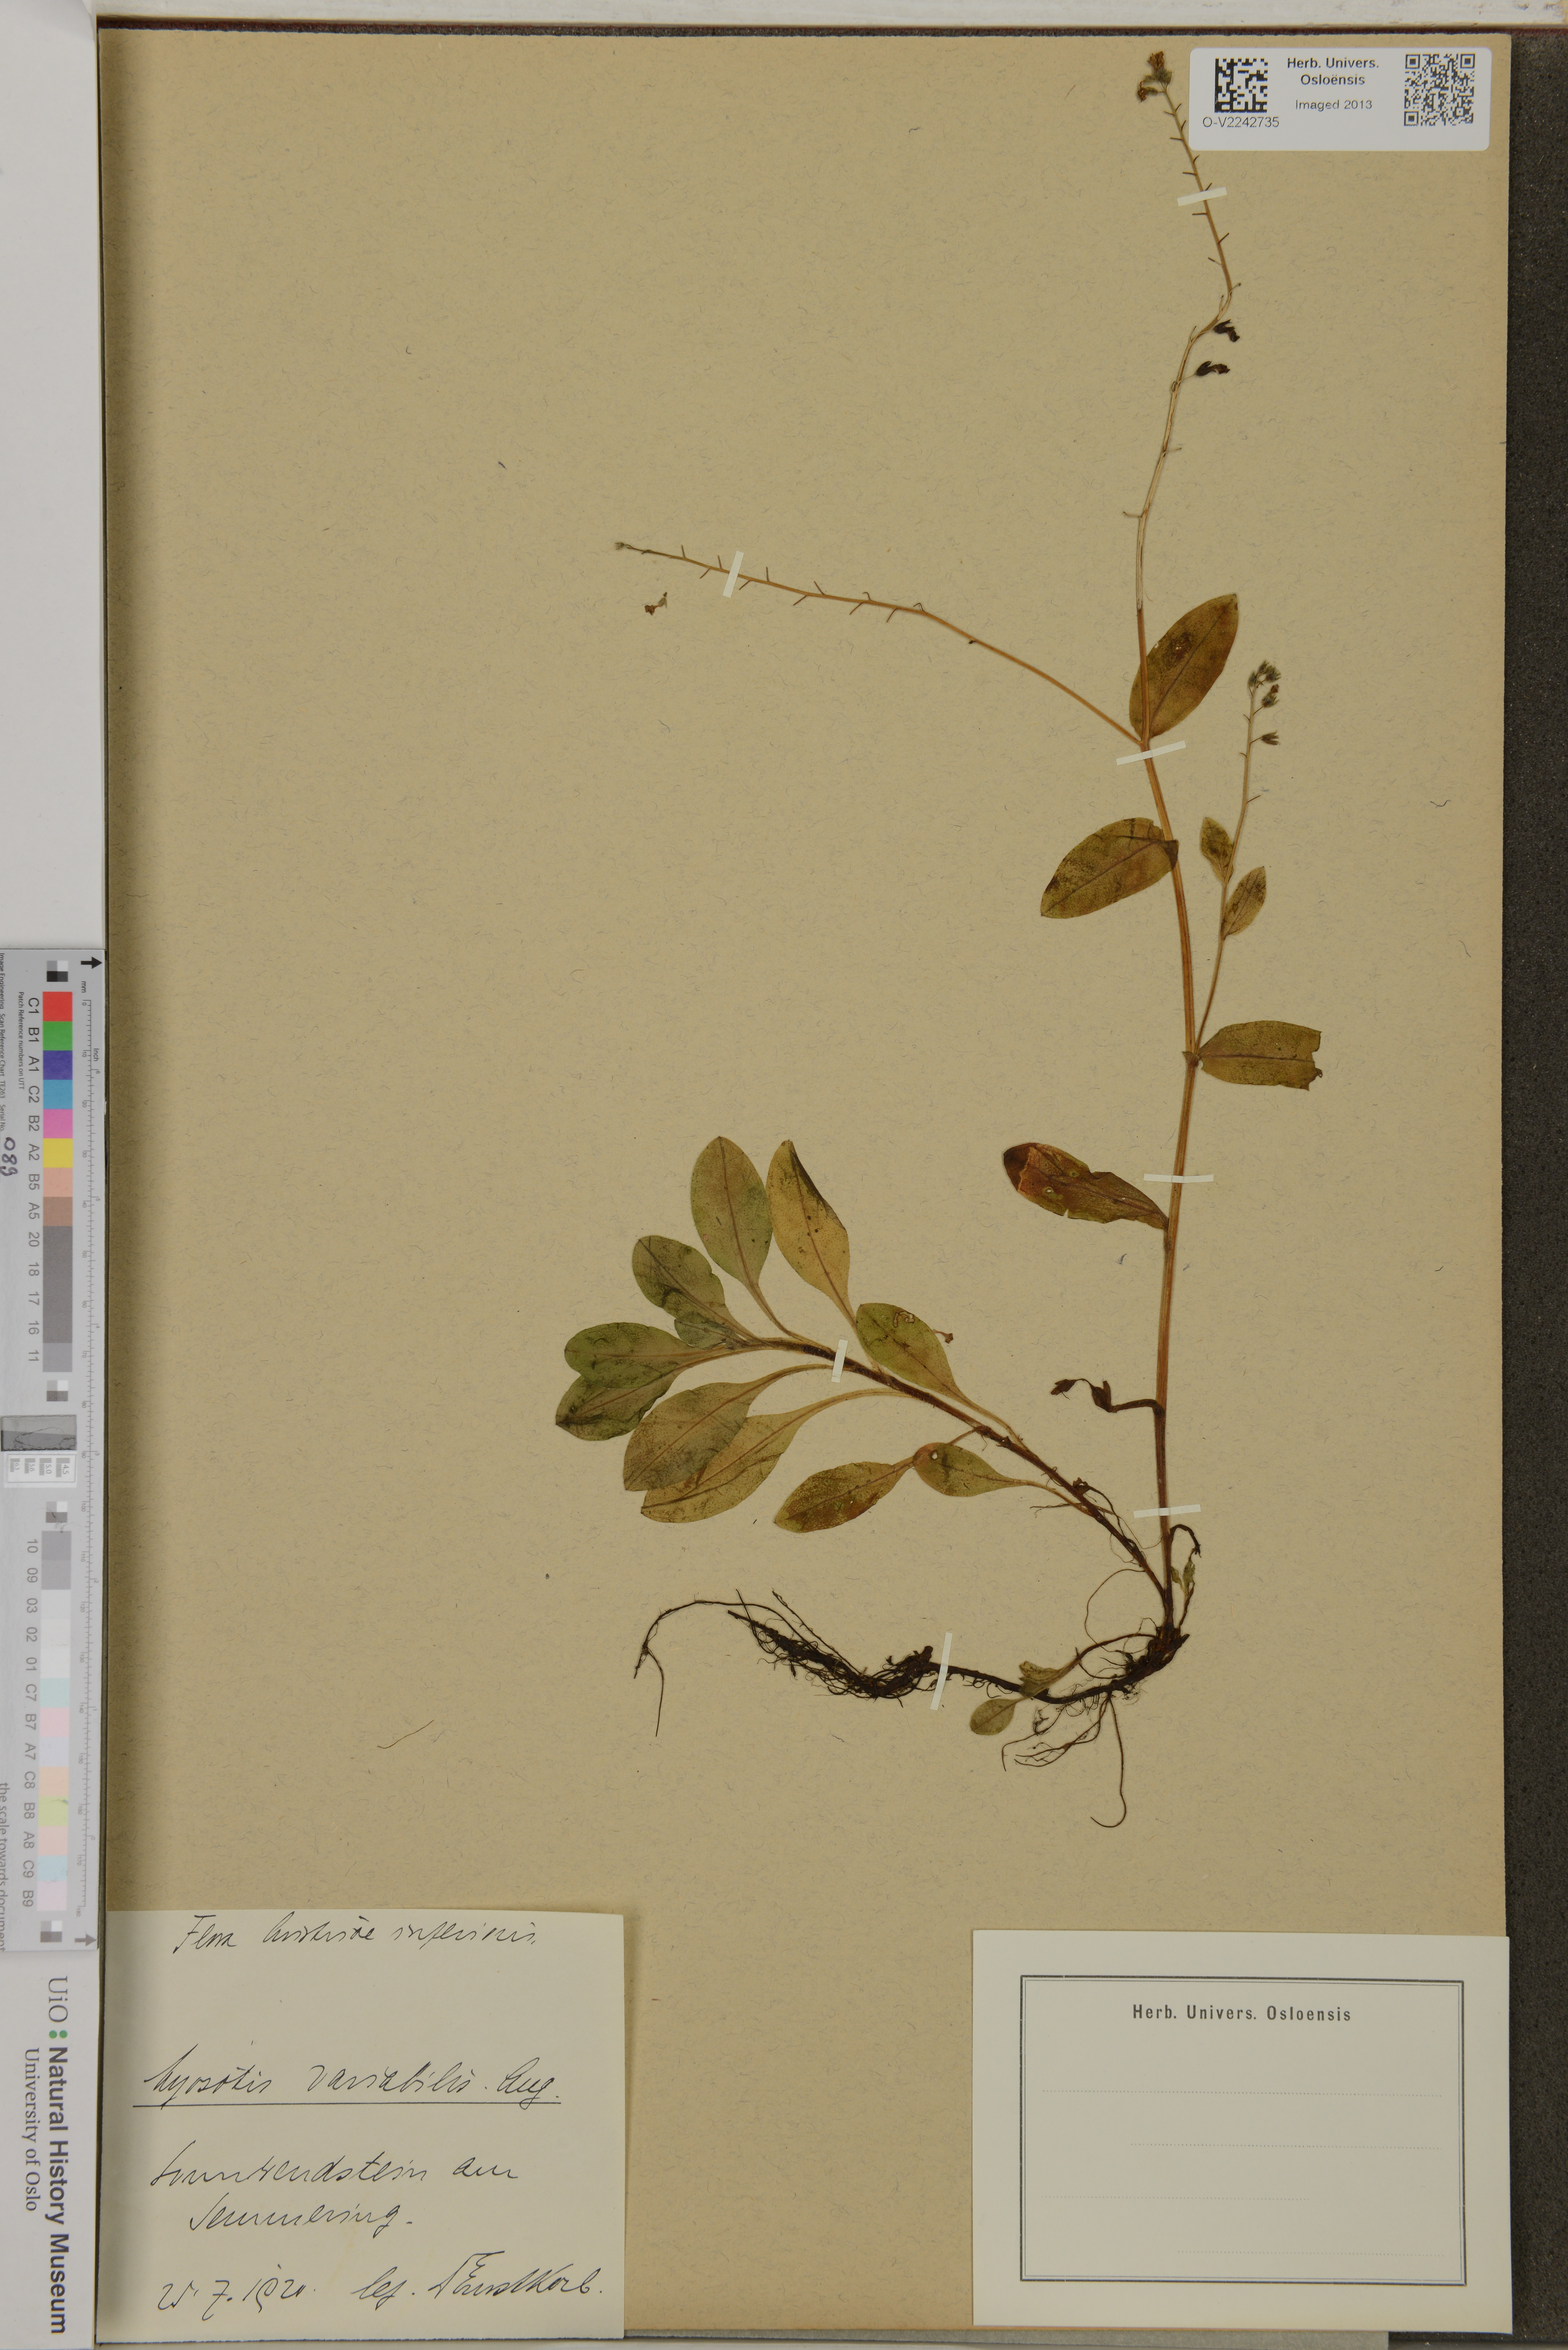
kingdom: Plantae
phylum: Tracheophyta
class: Magnoliopsida
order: Boraginales
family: Boraginaceae
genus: Myosotis
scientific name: Myosotis decumbens
